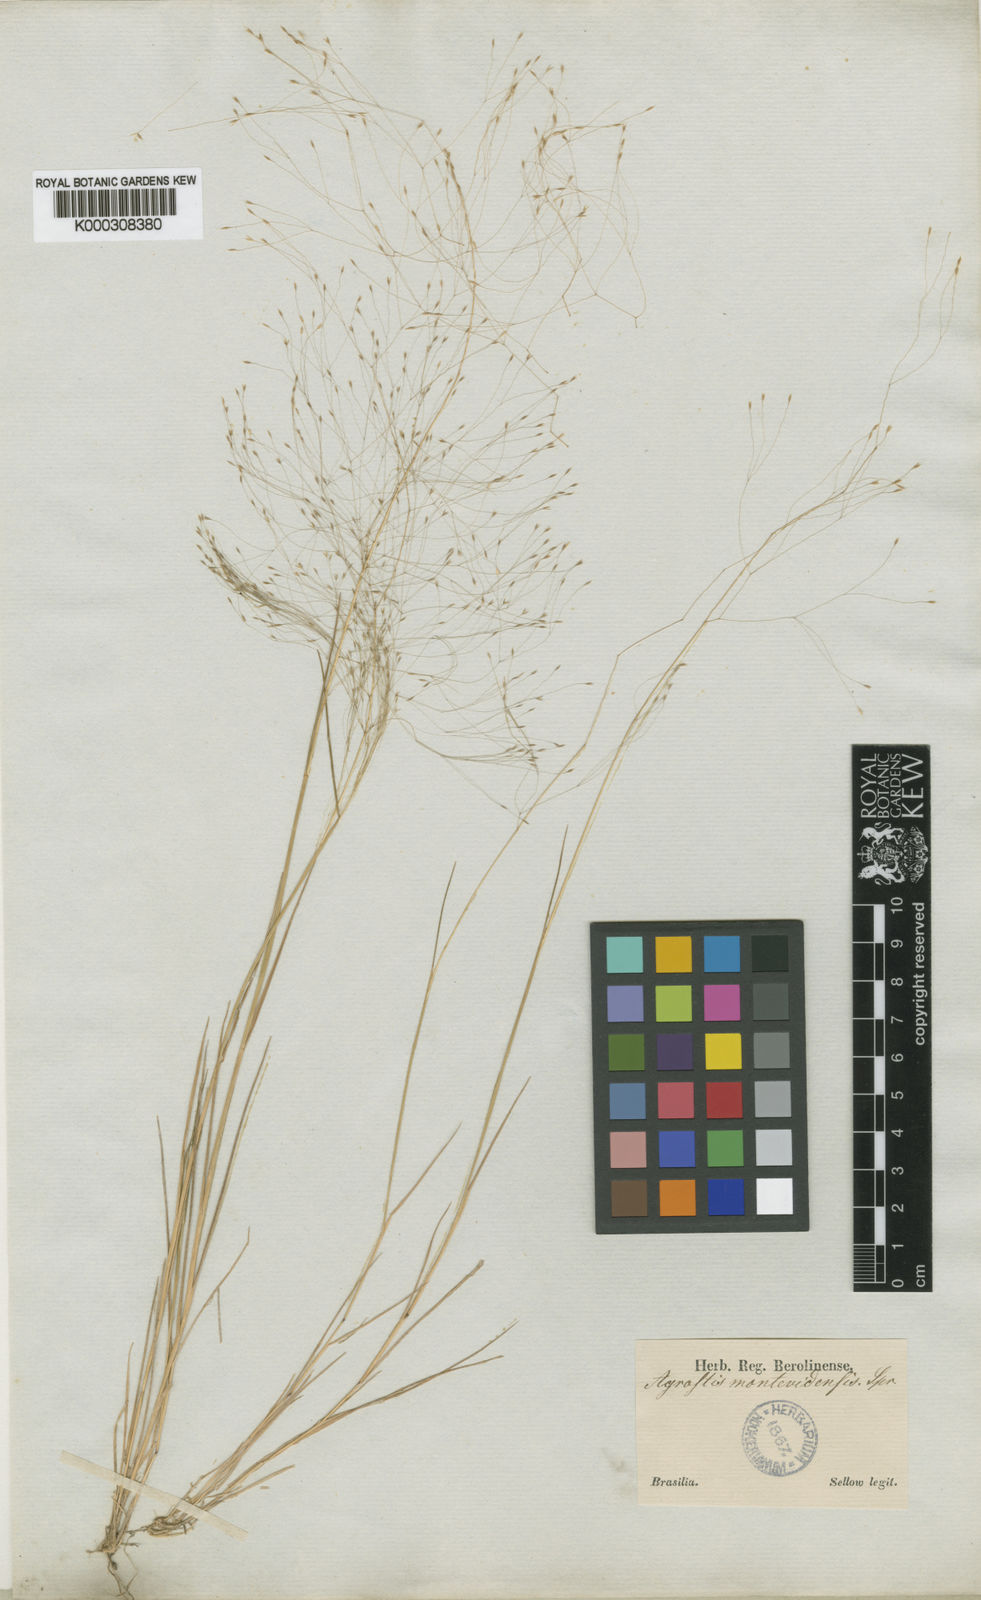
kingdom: Plantae
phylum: Tracheophyta
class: Liliopsida
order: Poales
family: Poaceae
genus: Agrostis
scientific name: Agrostis montevidensis
